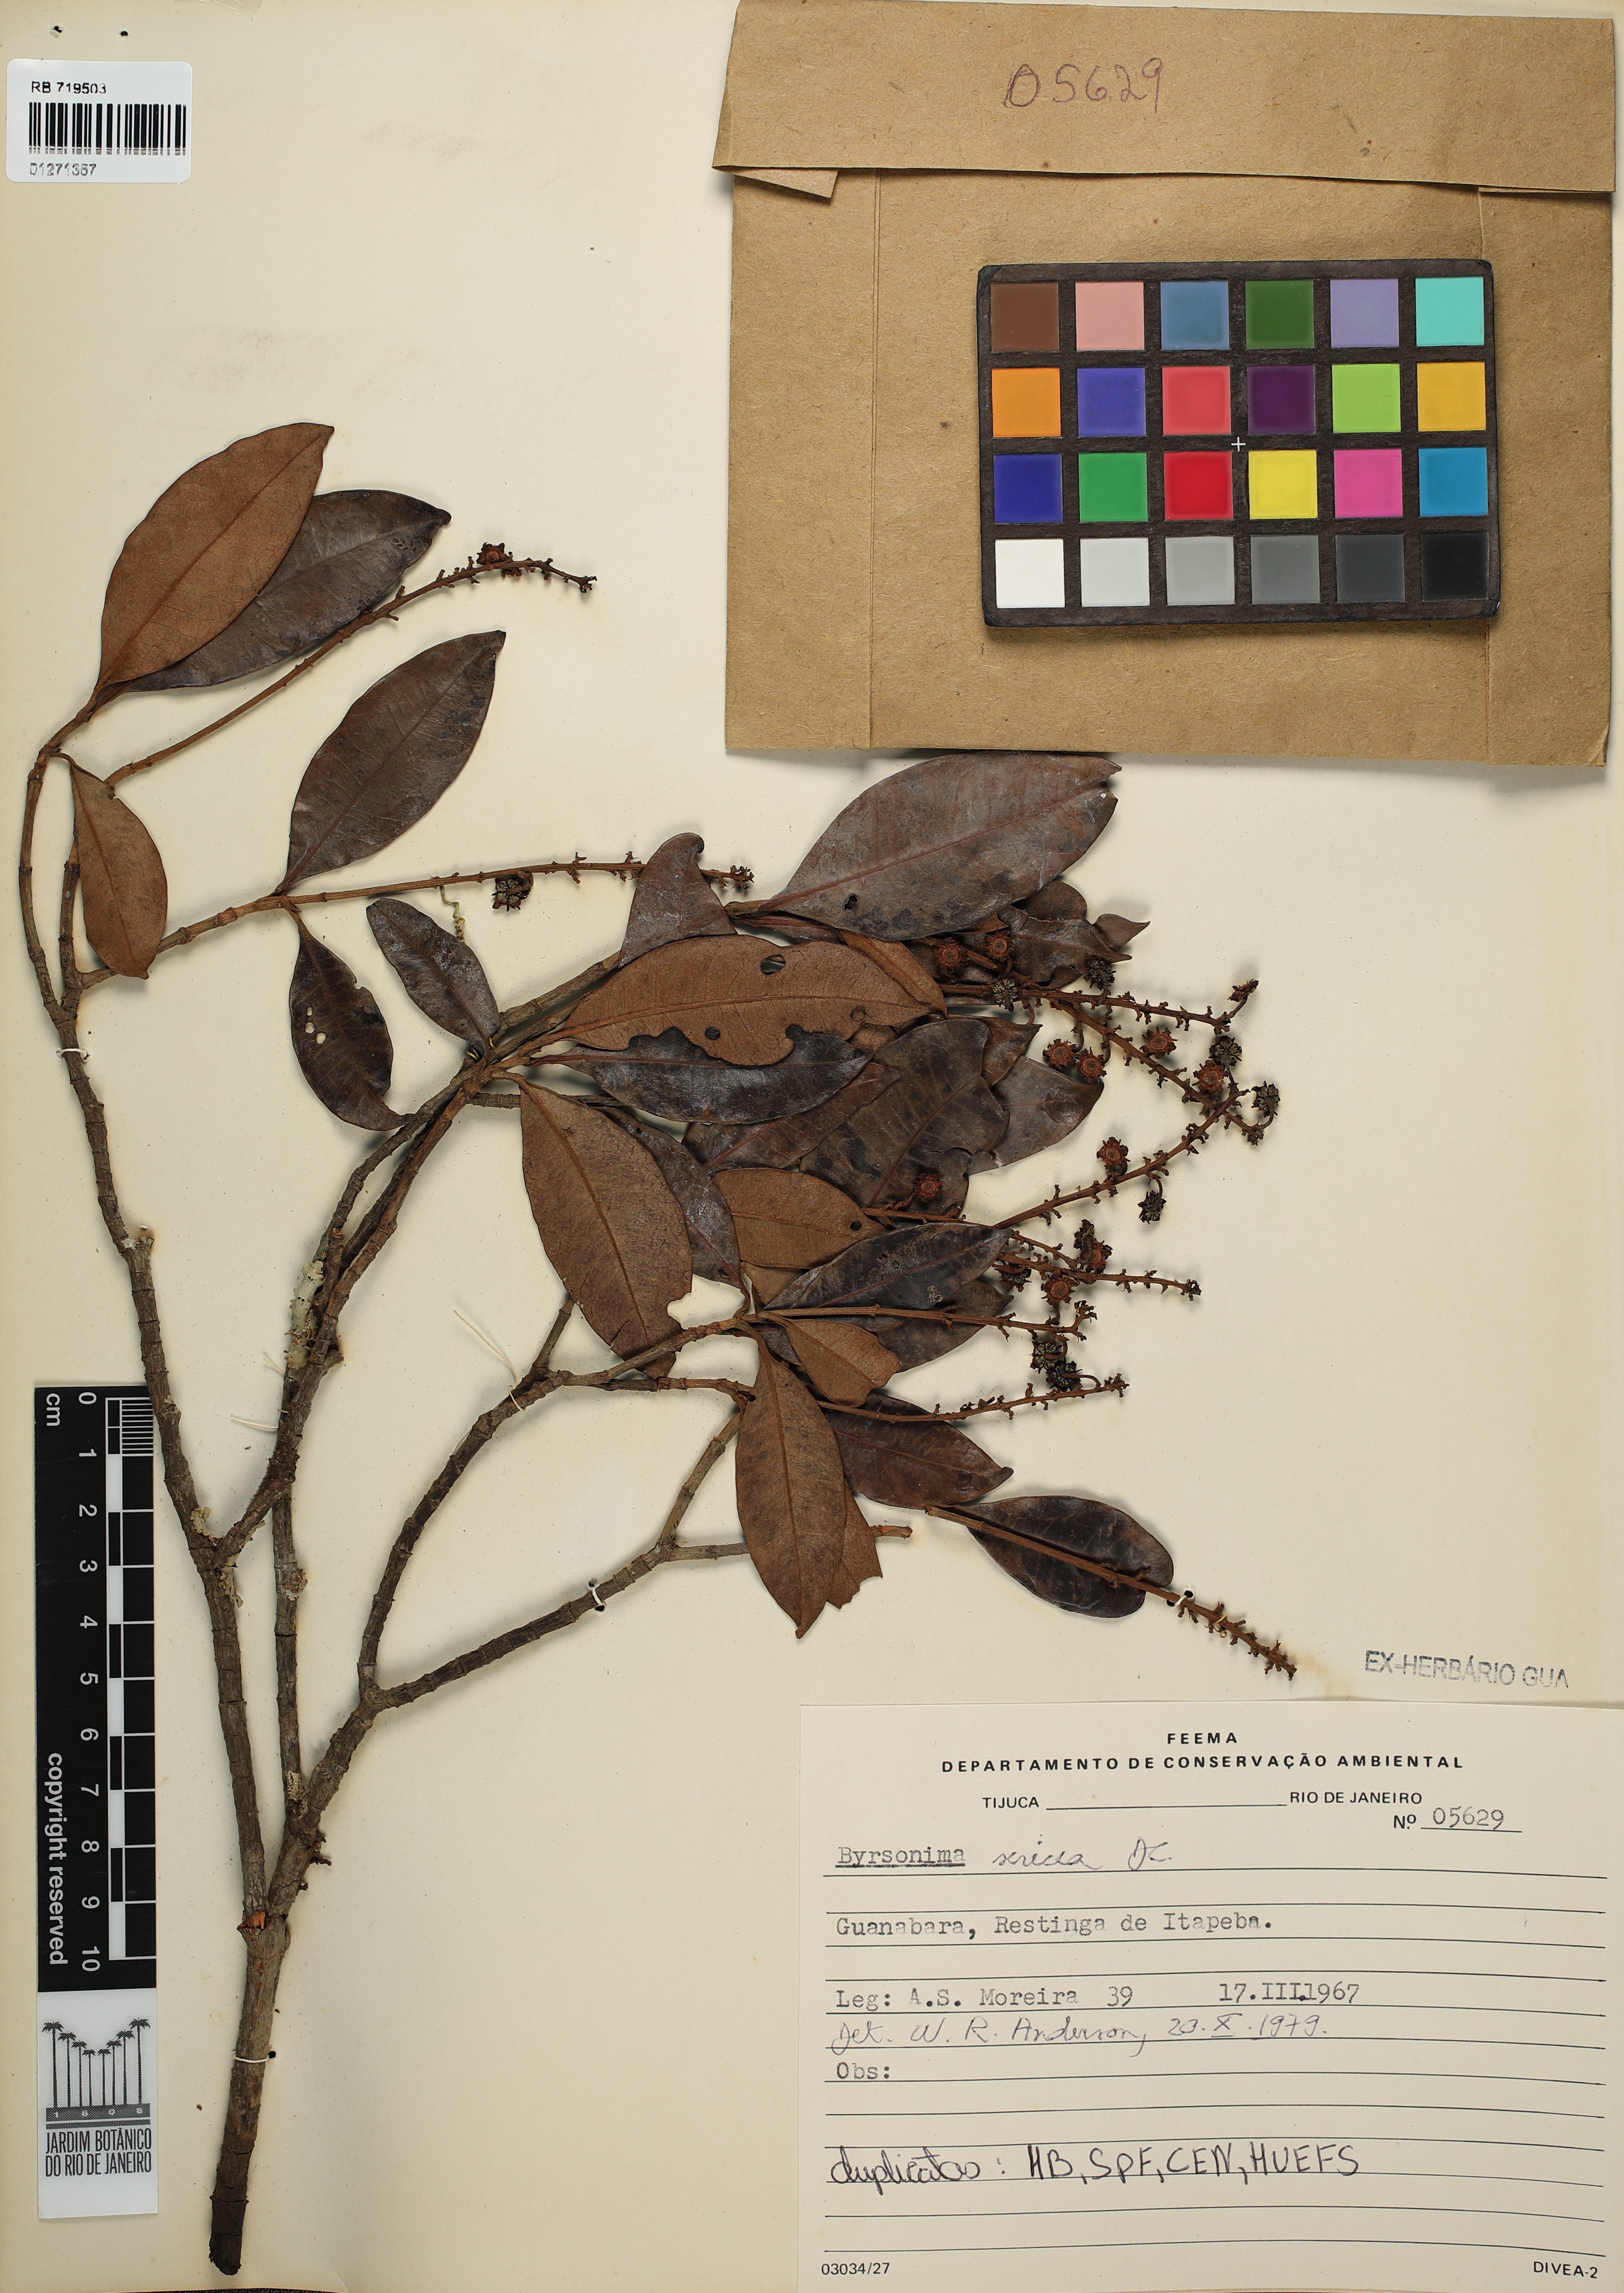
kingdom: Plantae
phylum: Tracheophyta
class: Magnoliopsida
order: Malpighiales
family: Malpighiaceae
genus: Byrsonima
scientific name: Byrsonima sericea
